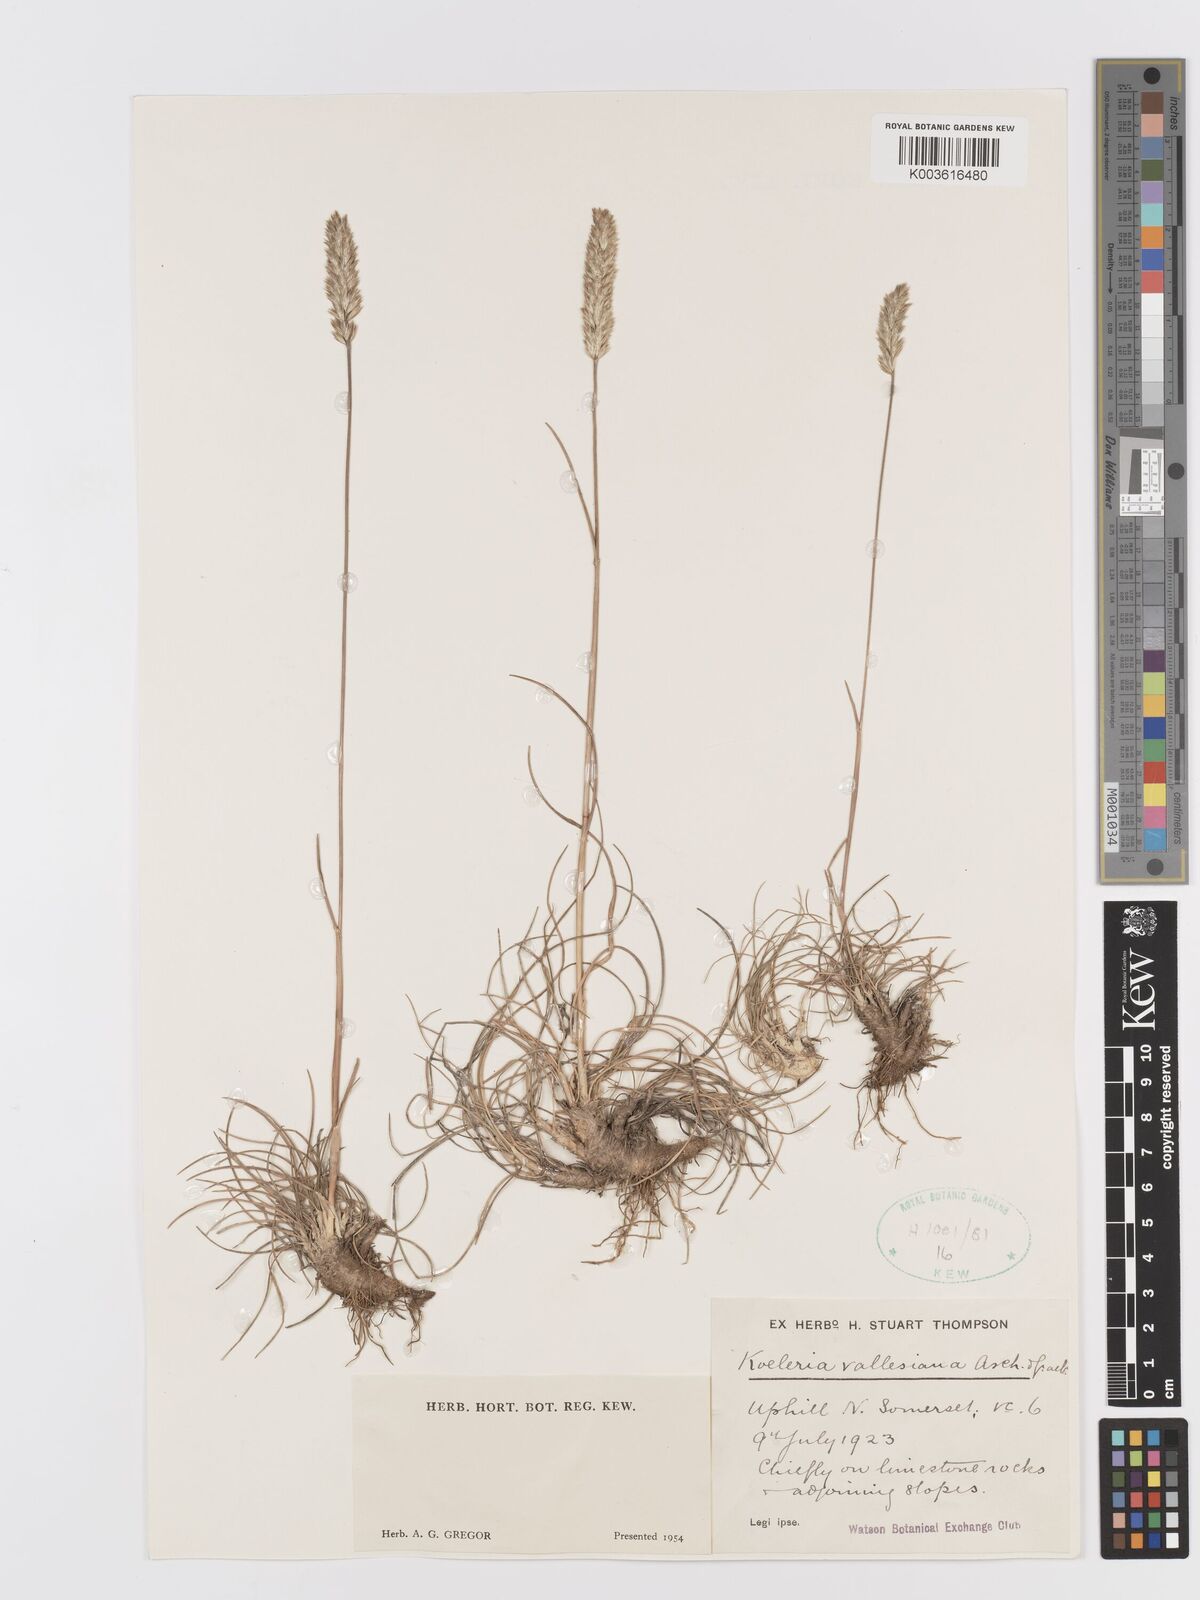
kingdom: Plantae
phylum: Tracheophyta
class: Liliopsida
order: Poales
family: Poaceae
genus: Koeleria
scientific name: Koeleria vallesiana
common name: Somerset hair-grass
